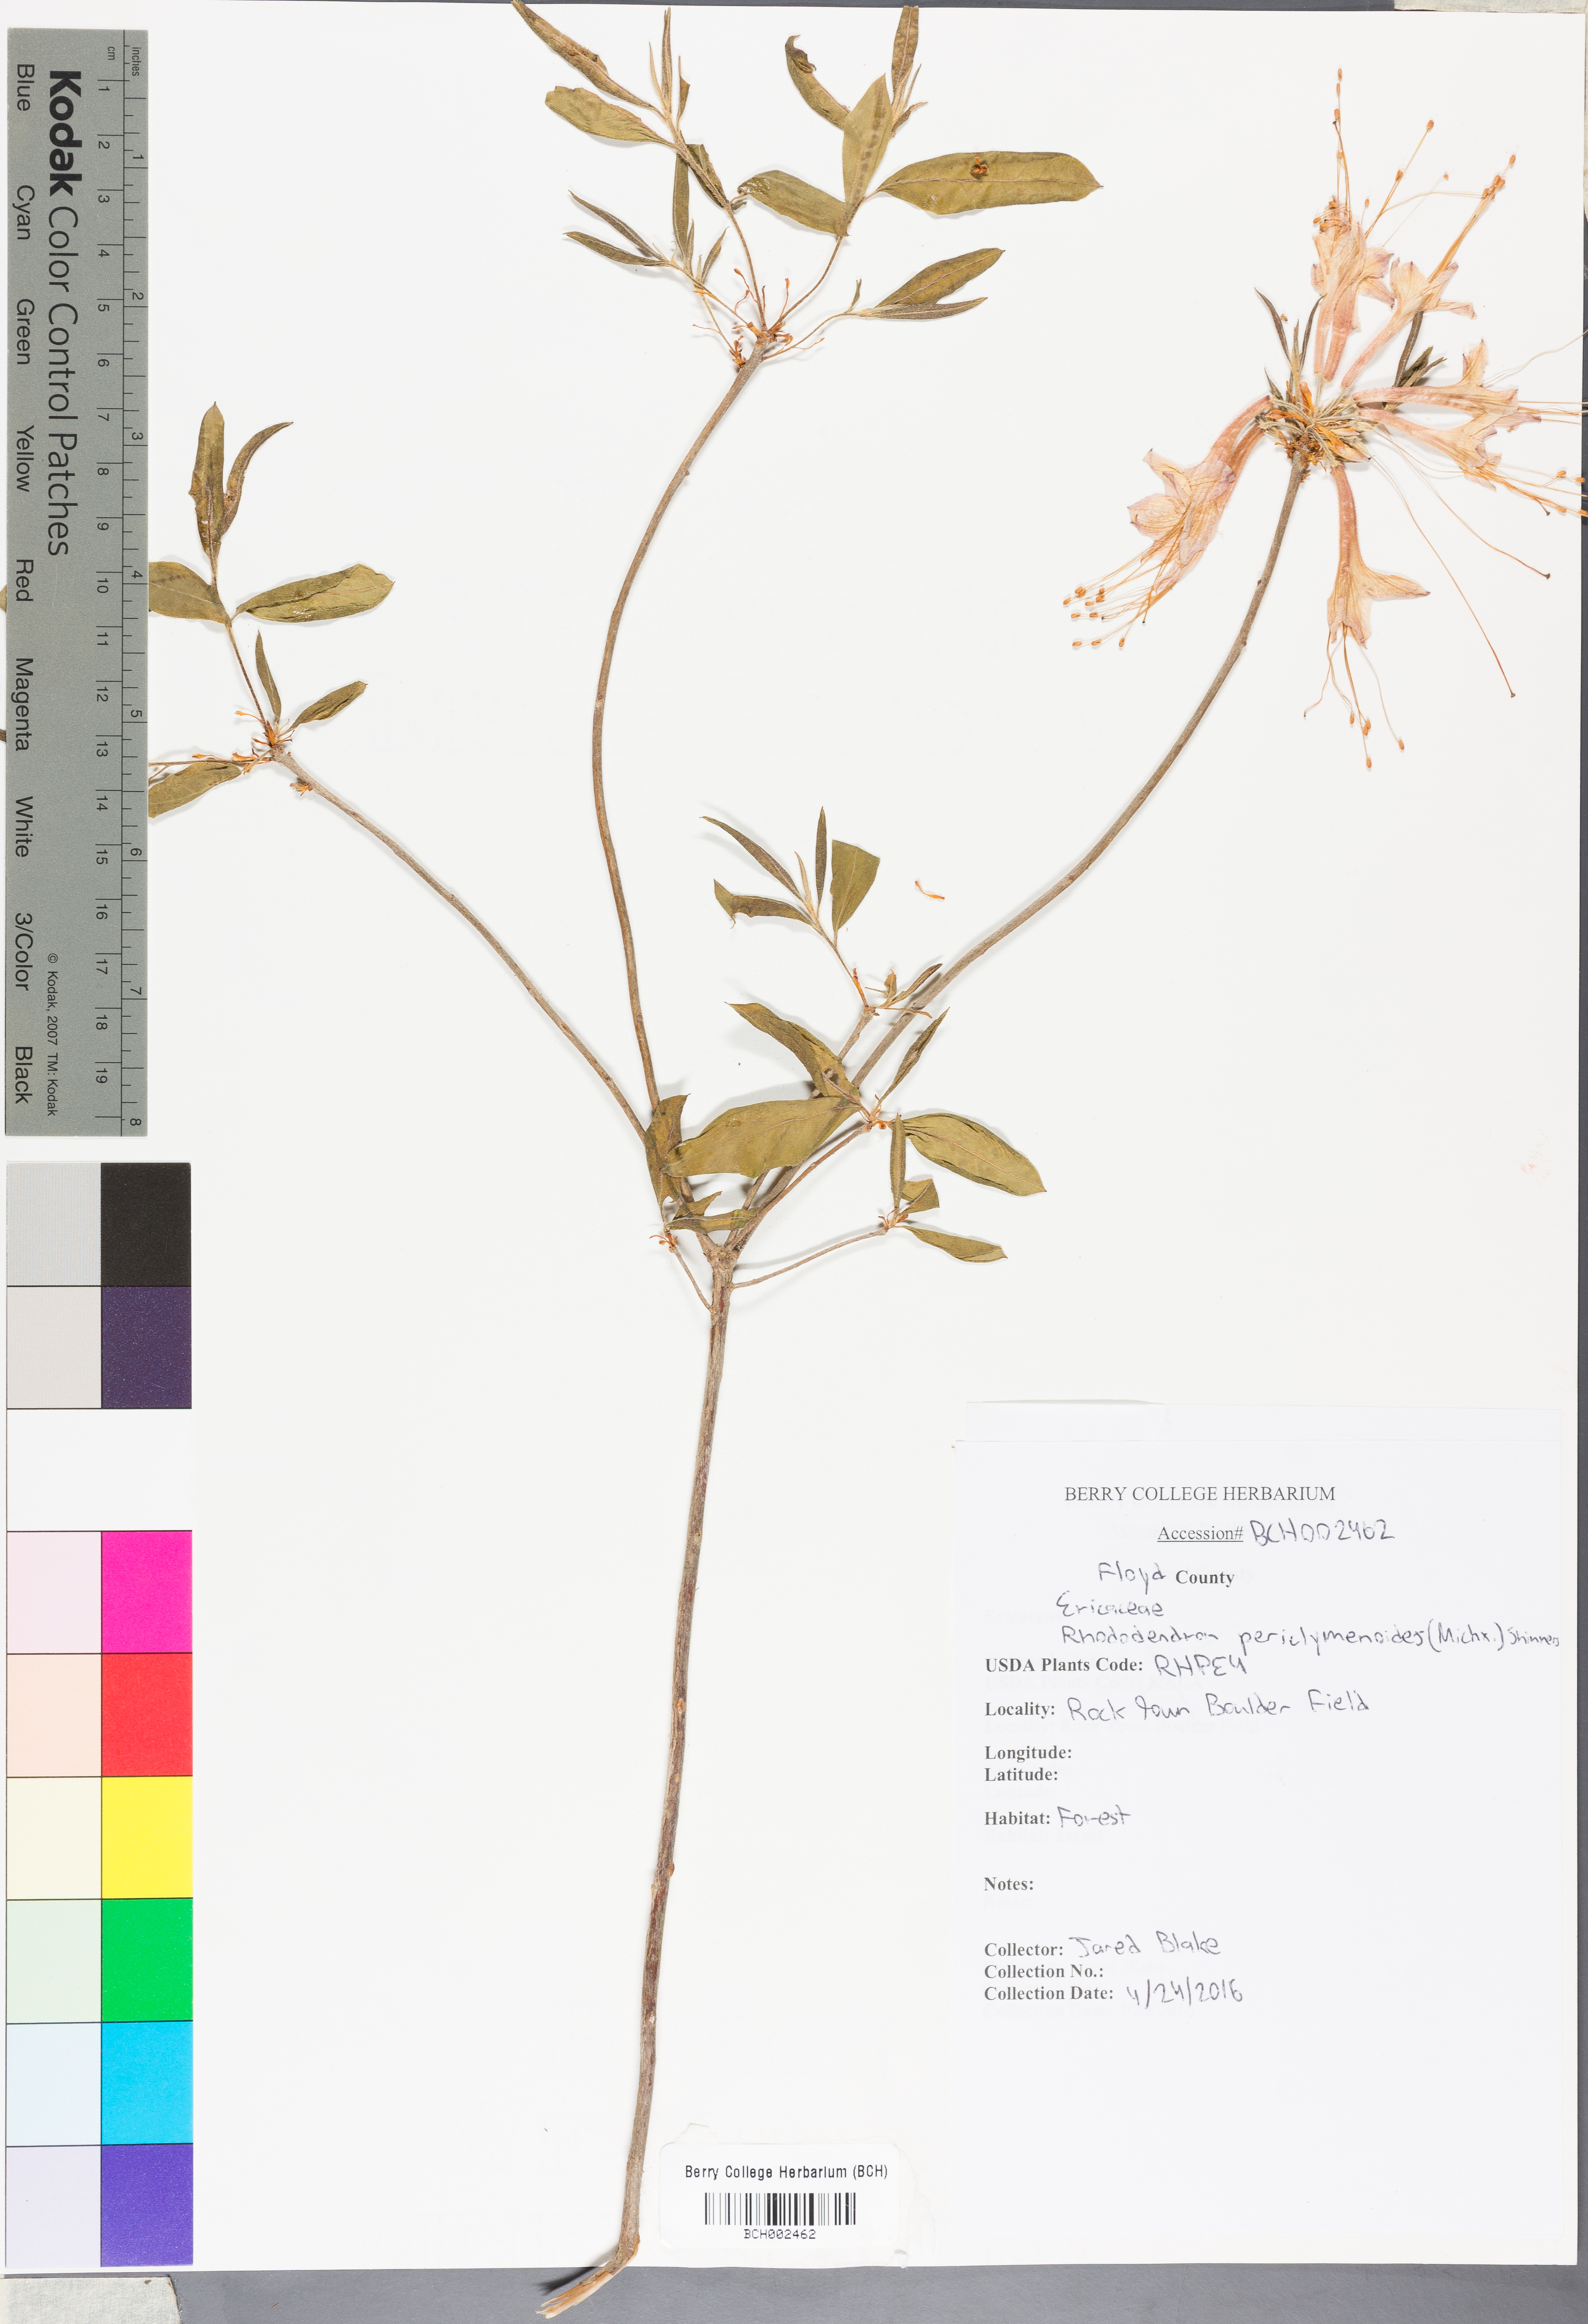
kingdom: Plantae
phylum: Tracheophyta
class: Magnoliopsida
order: Ericales
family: Ericaceae
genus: Rhododendron
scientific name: Rhododendron periclymenoides
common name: Election-pink
